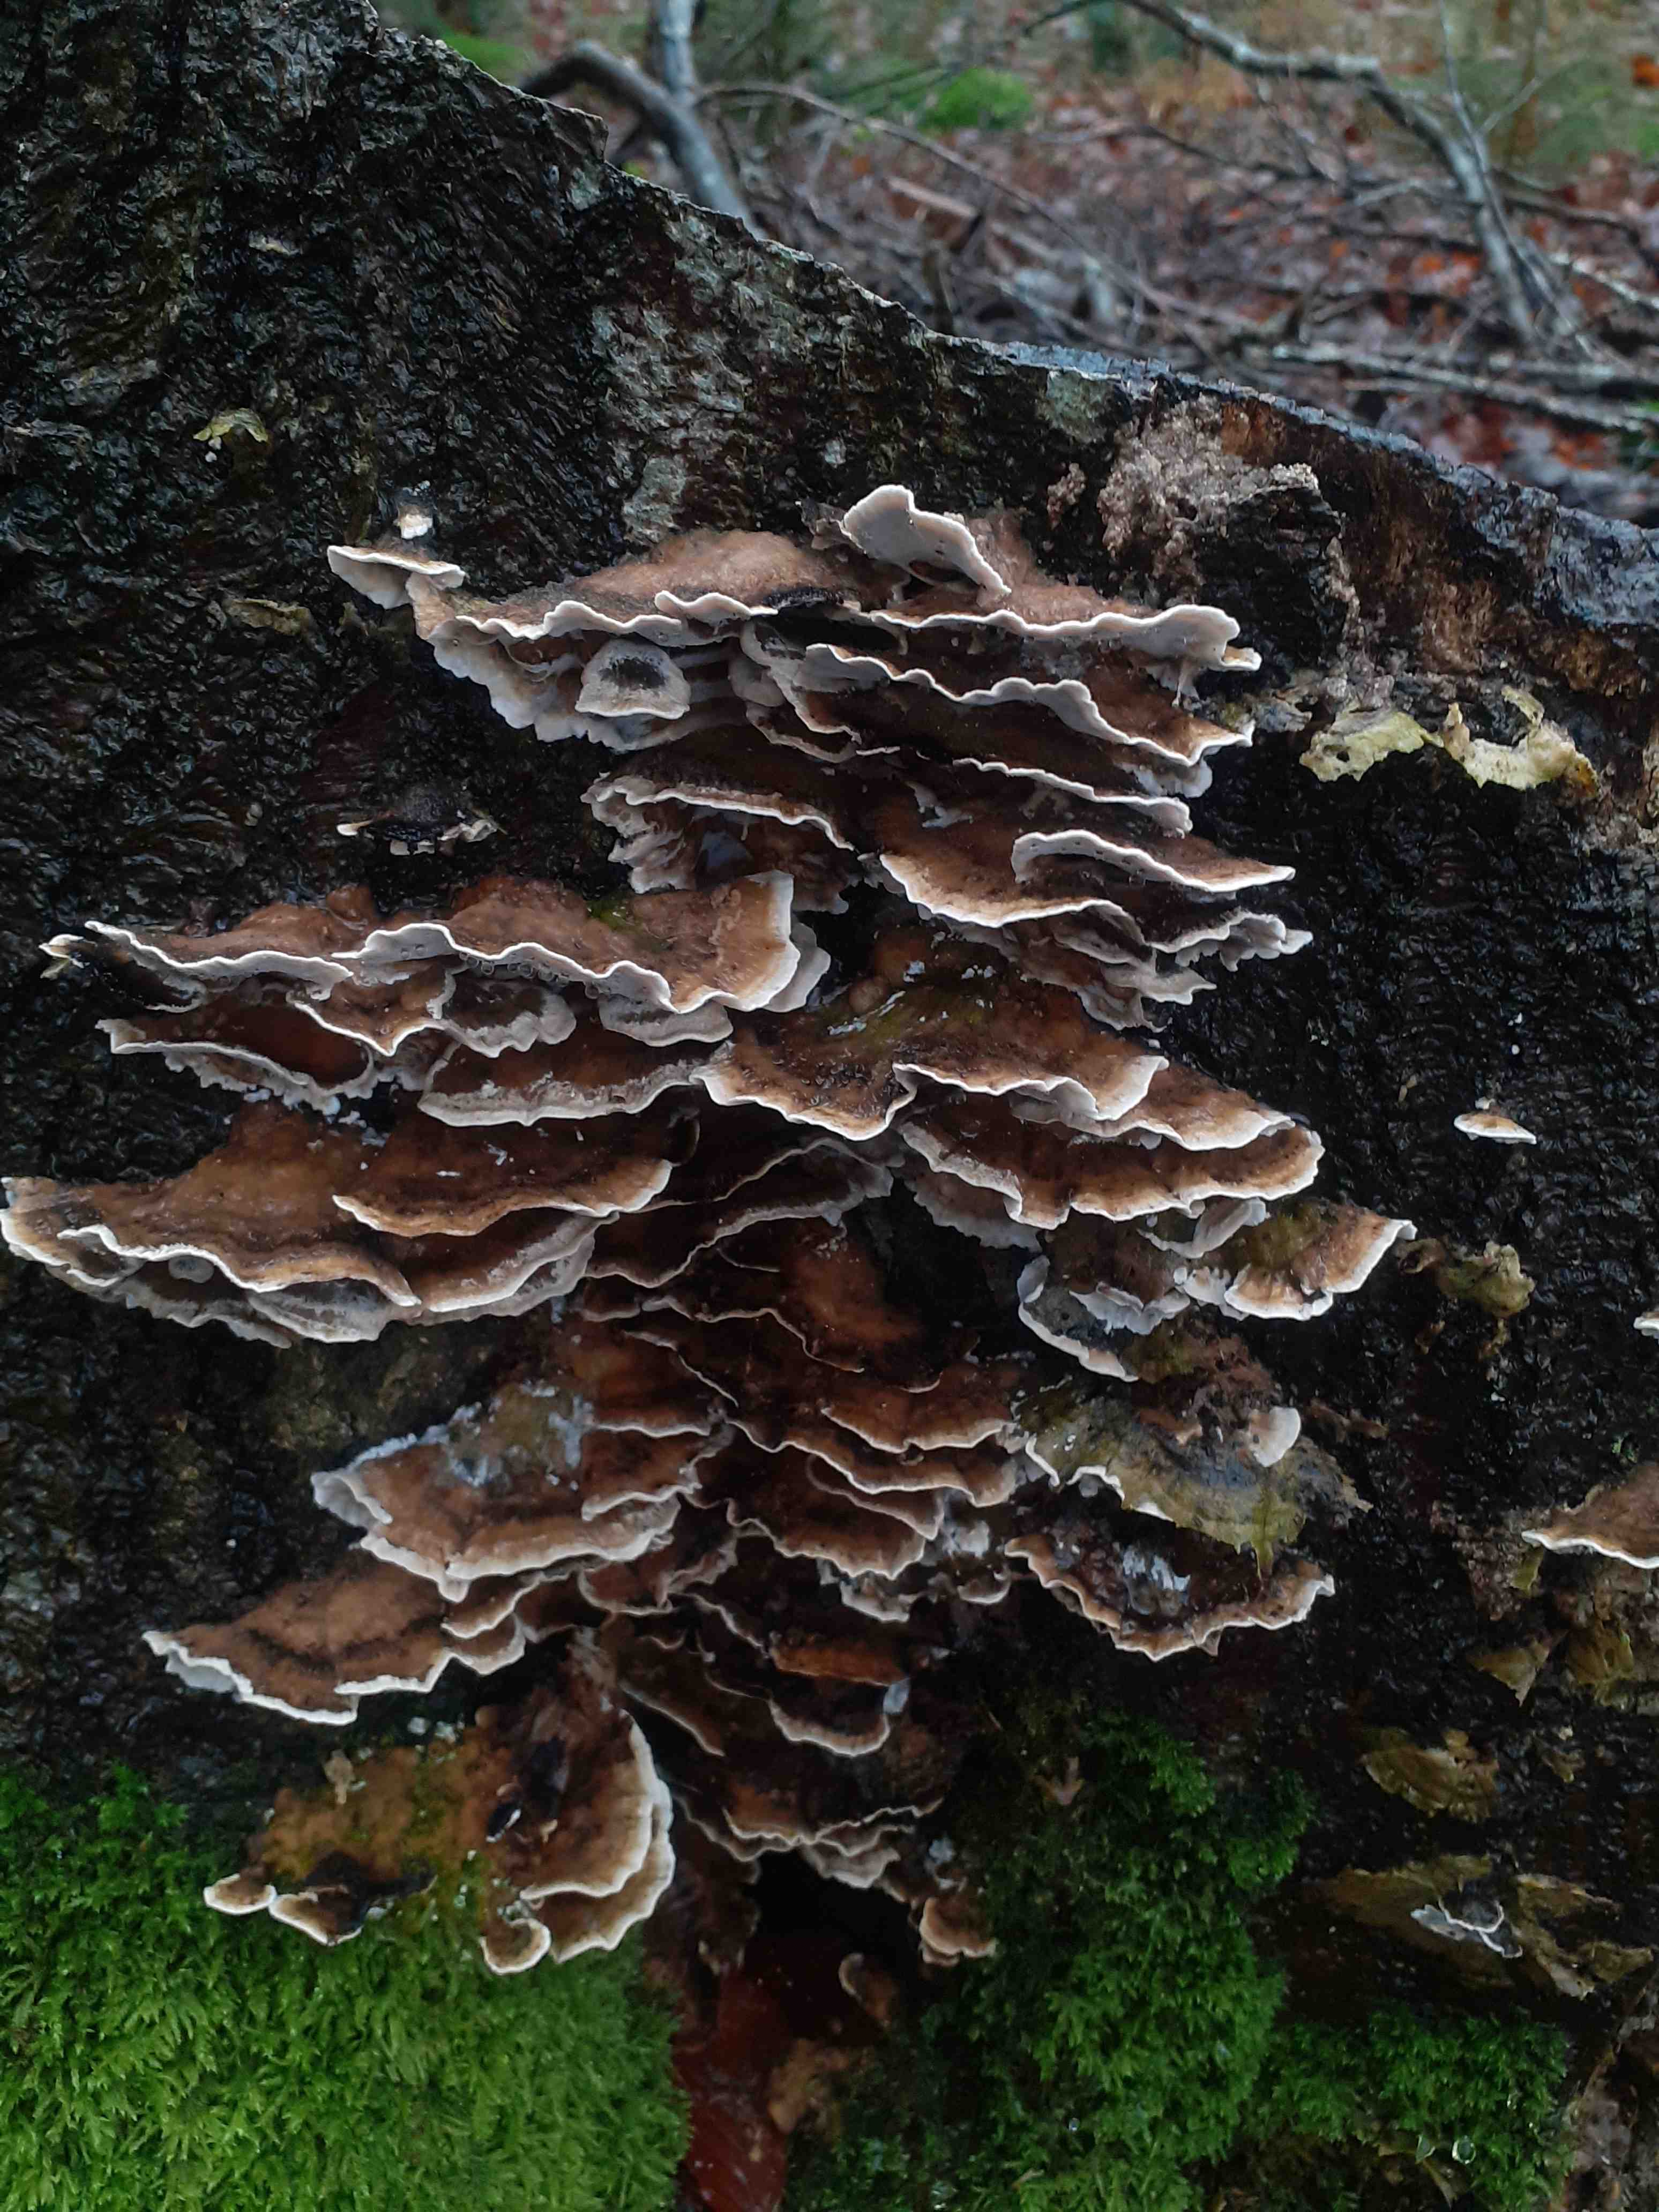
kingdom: Fungi
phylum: Basidiomycota
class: Agaricomycetes
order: Polyporales
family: Phanerochaetaceae
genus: Bjerkandera
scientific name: Bjerkandera adusta
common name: sveden sodporesvamp
